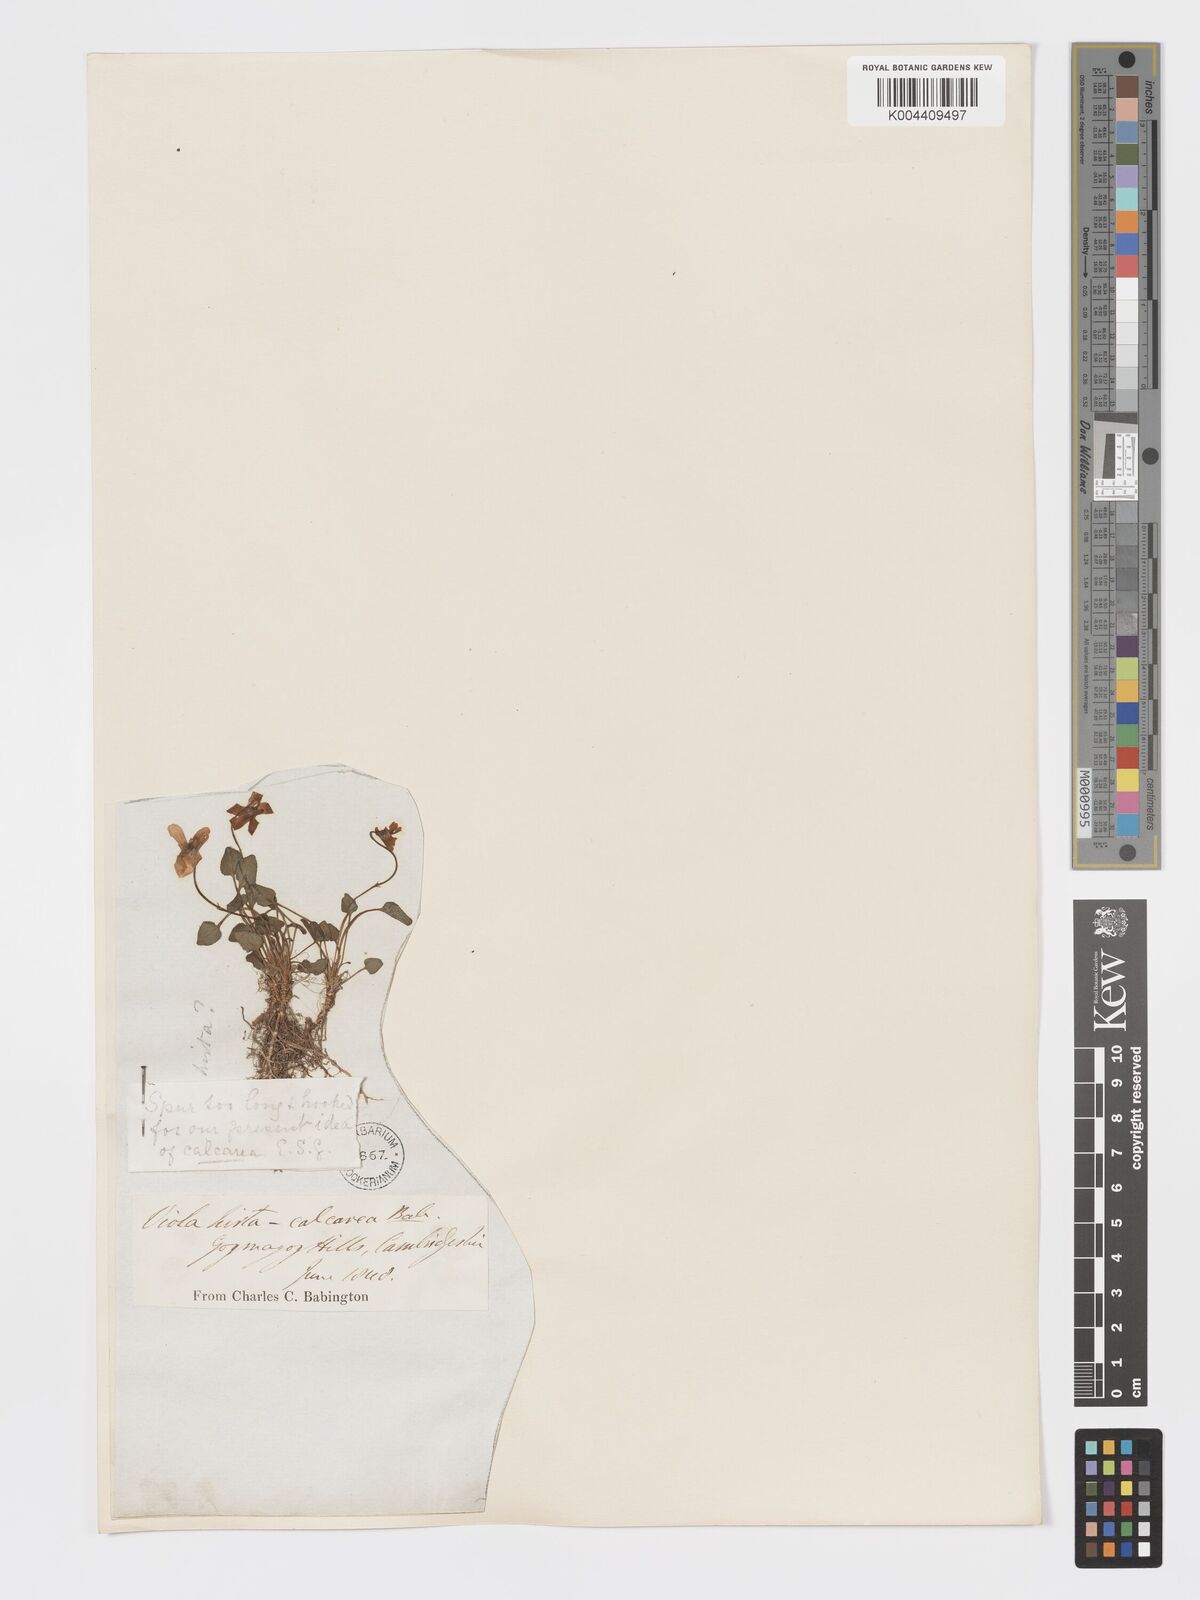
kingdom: Plantae
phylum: Tracheophyta
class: Magnoliopsida
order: Malpighiales
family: Violaceae
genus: Viola
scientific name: Viola
